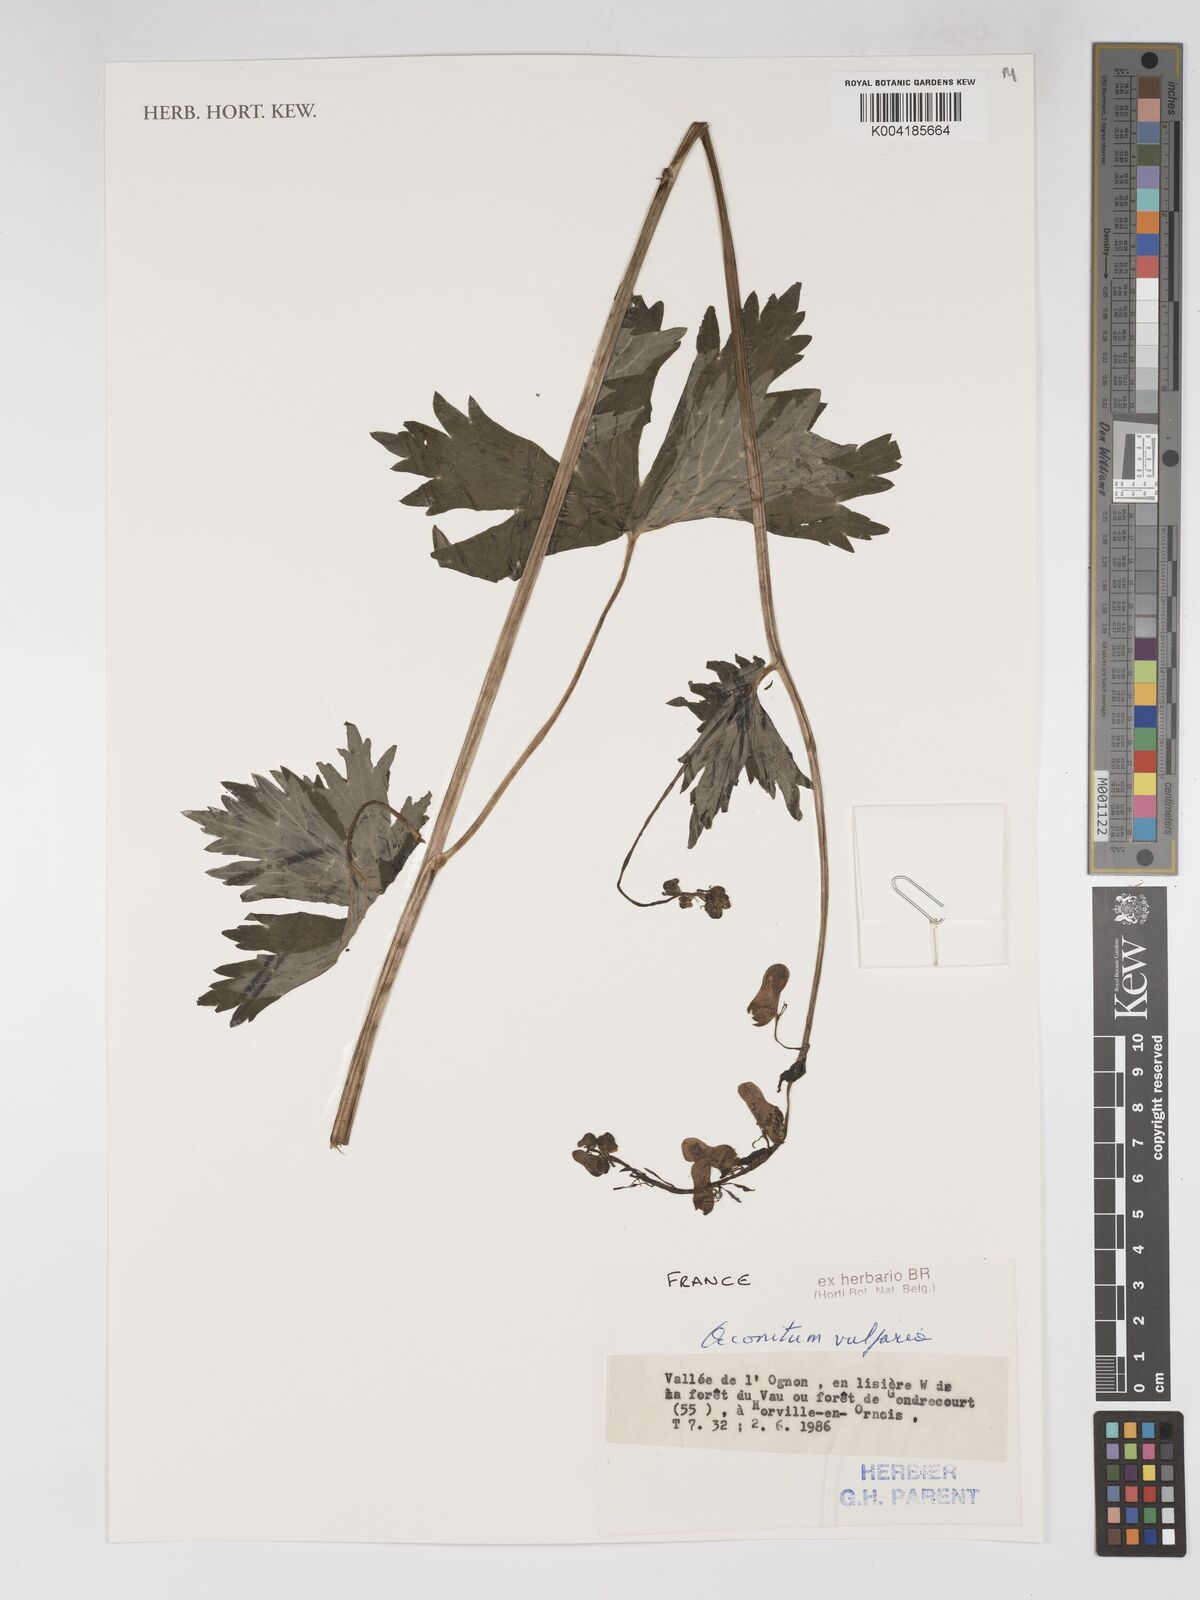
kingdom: Plantae
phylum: Tracheophyta
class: Magnoliopsida
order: Ranunculales
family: Ranunculaceae
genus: Aconitum
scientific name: Aconitum lycoctonum
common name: Wolf's-bane
